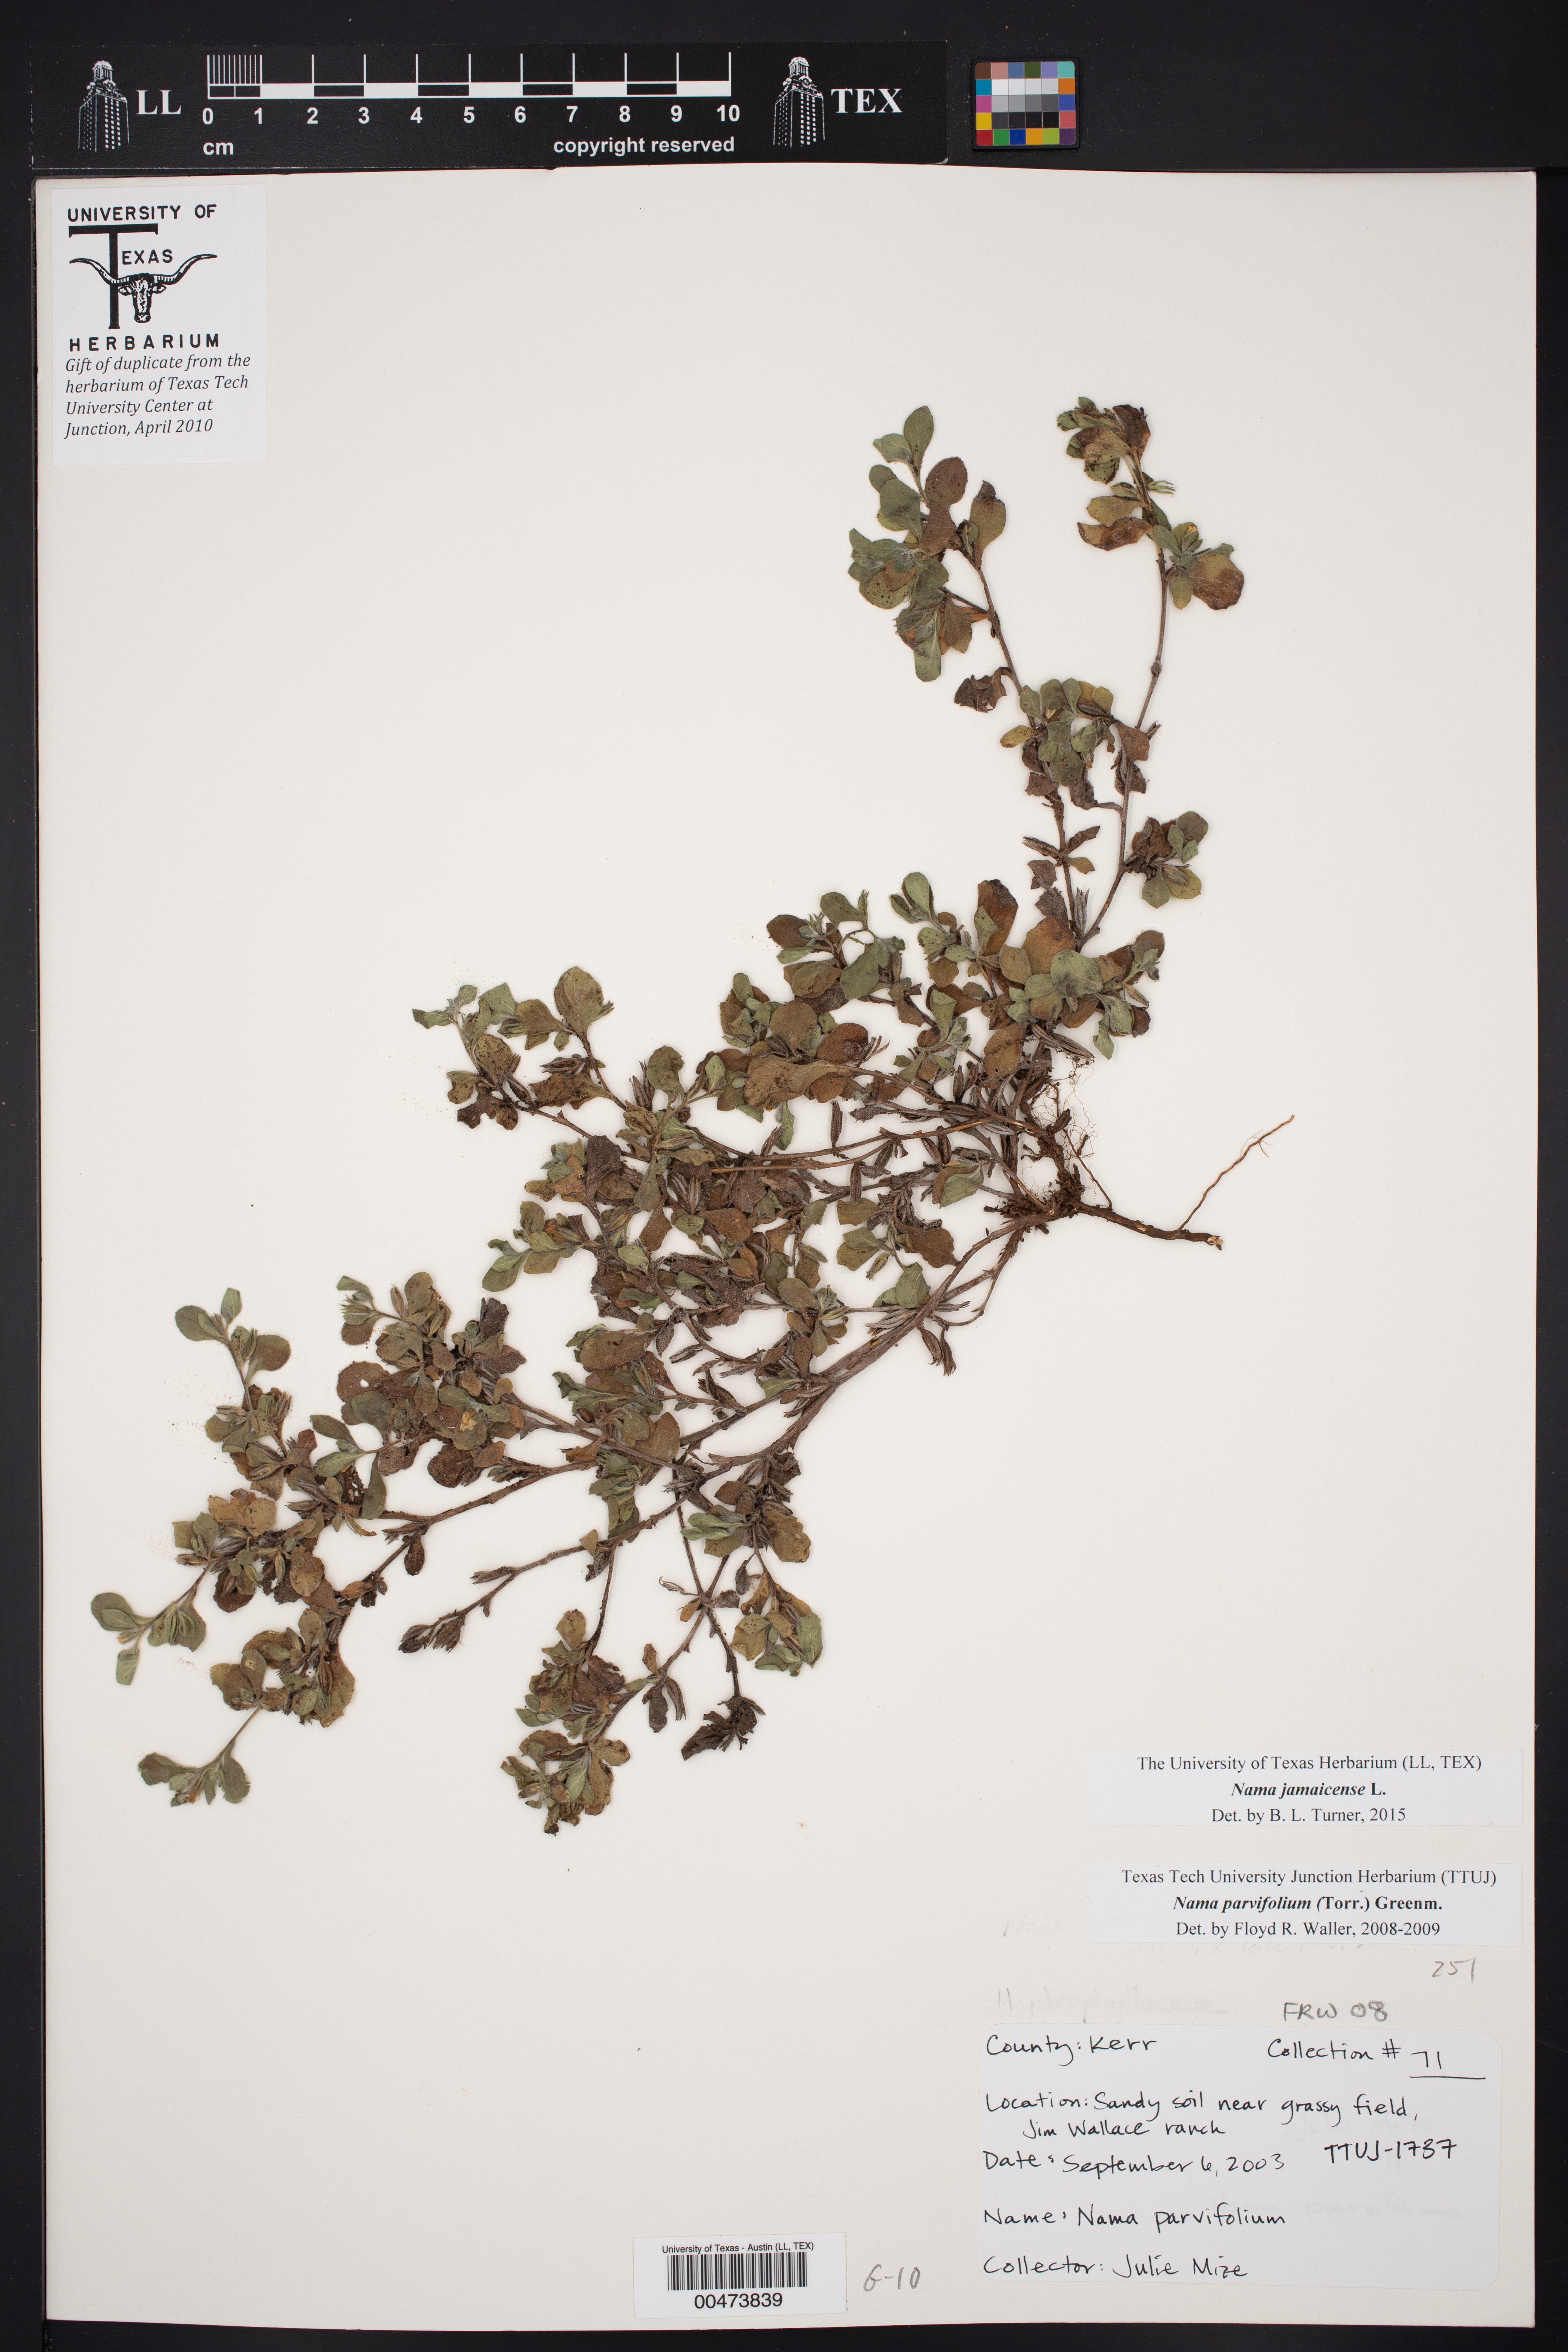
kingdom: Plantae
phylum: Tracheophyta
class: Magnoliopsida
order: Boraginales
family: Namaceae
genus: Nama
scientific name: Nama jamaicensis
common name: Jamaicanweed
